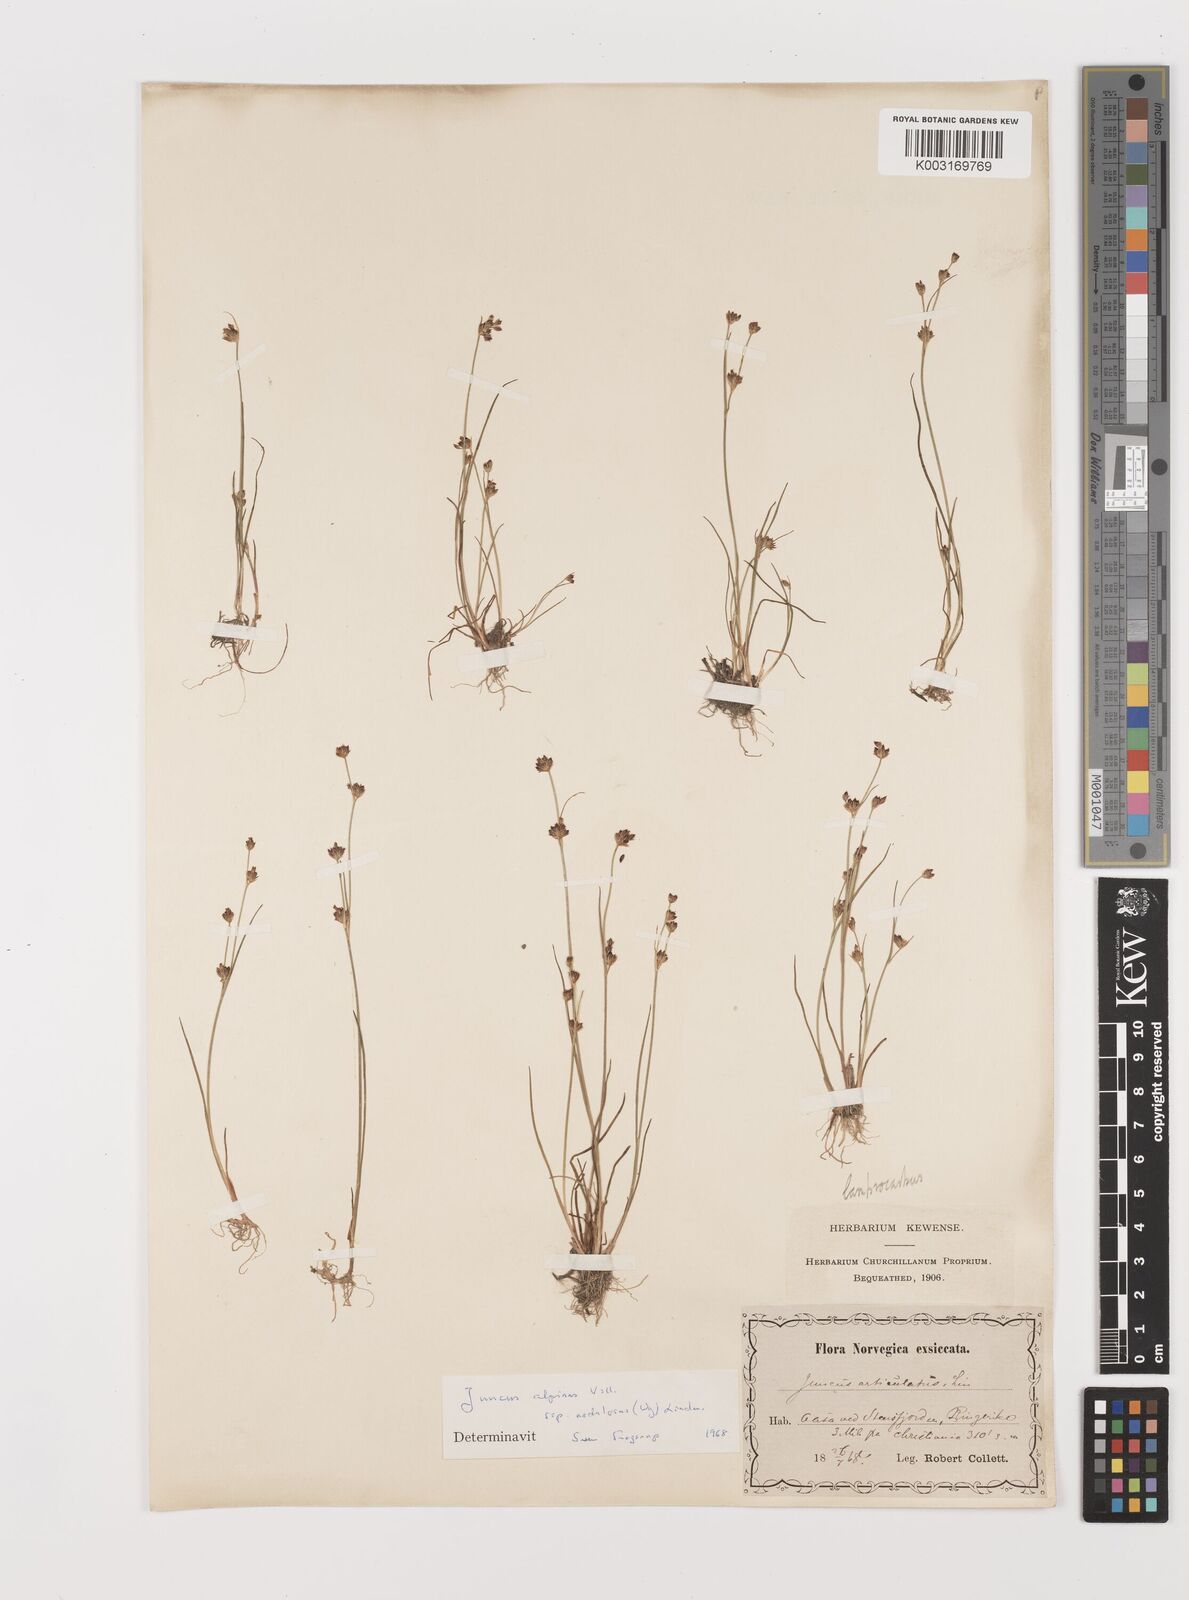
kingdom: Plantae
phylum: Tracheophyta
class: Liliopsida
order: Poales
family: Juncaceae
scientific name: Juncaceae
